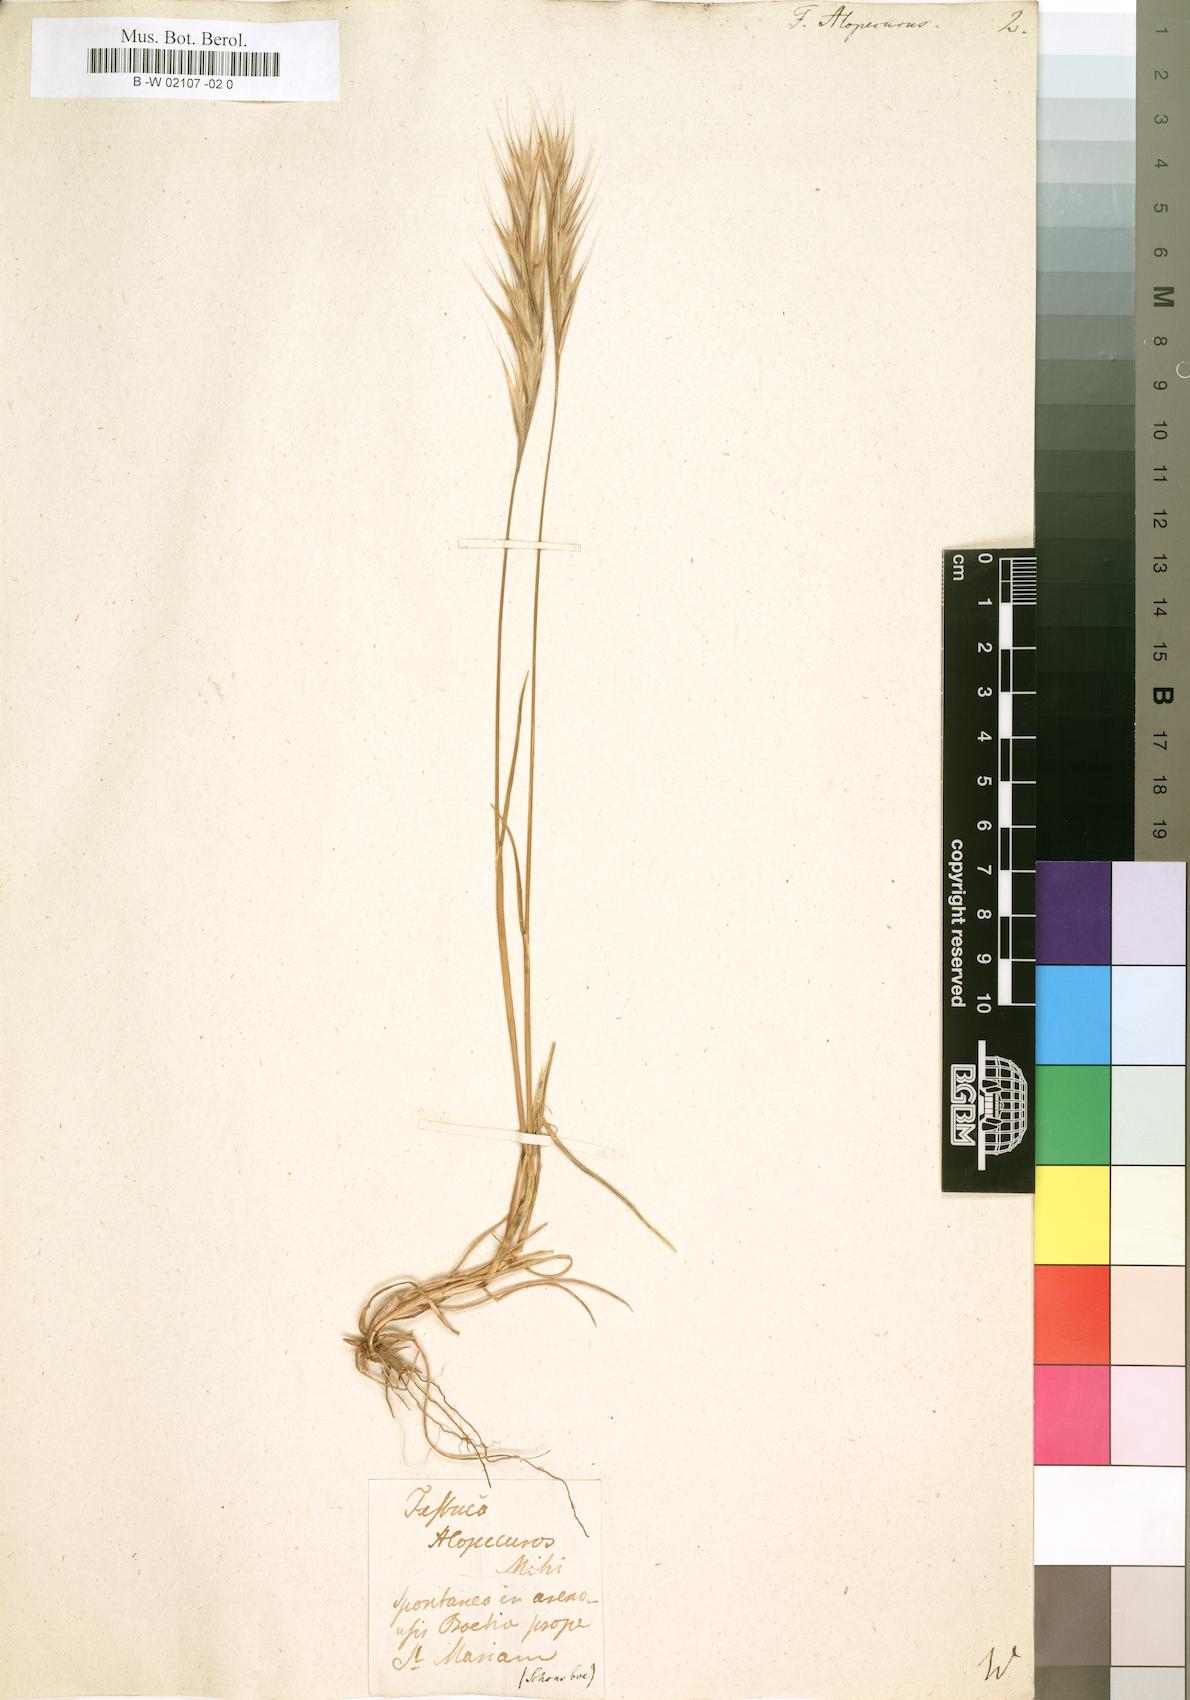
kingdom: Plantae
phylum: Tracheophyta
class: Liliopsida
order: Poales
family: Poaceae
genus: Poa
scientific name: Poa alopecurus
